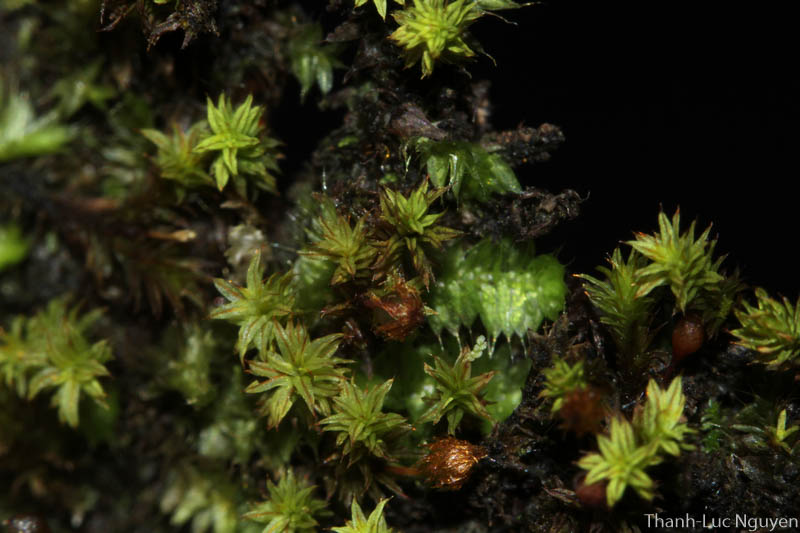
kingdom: Plantae
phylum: Bryophyta
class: Bryopsida
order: Orthotrichales
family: Orthotrichaceae
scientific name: Orthotrichaceae
